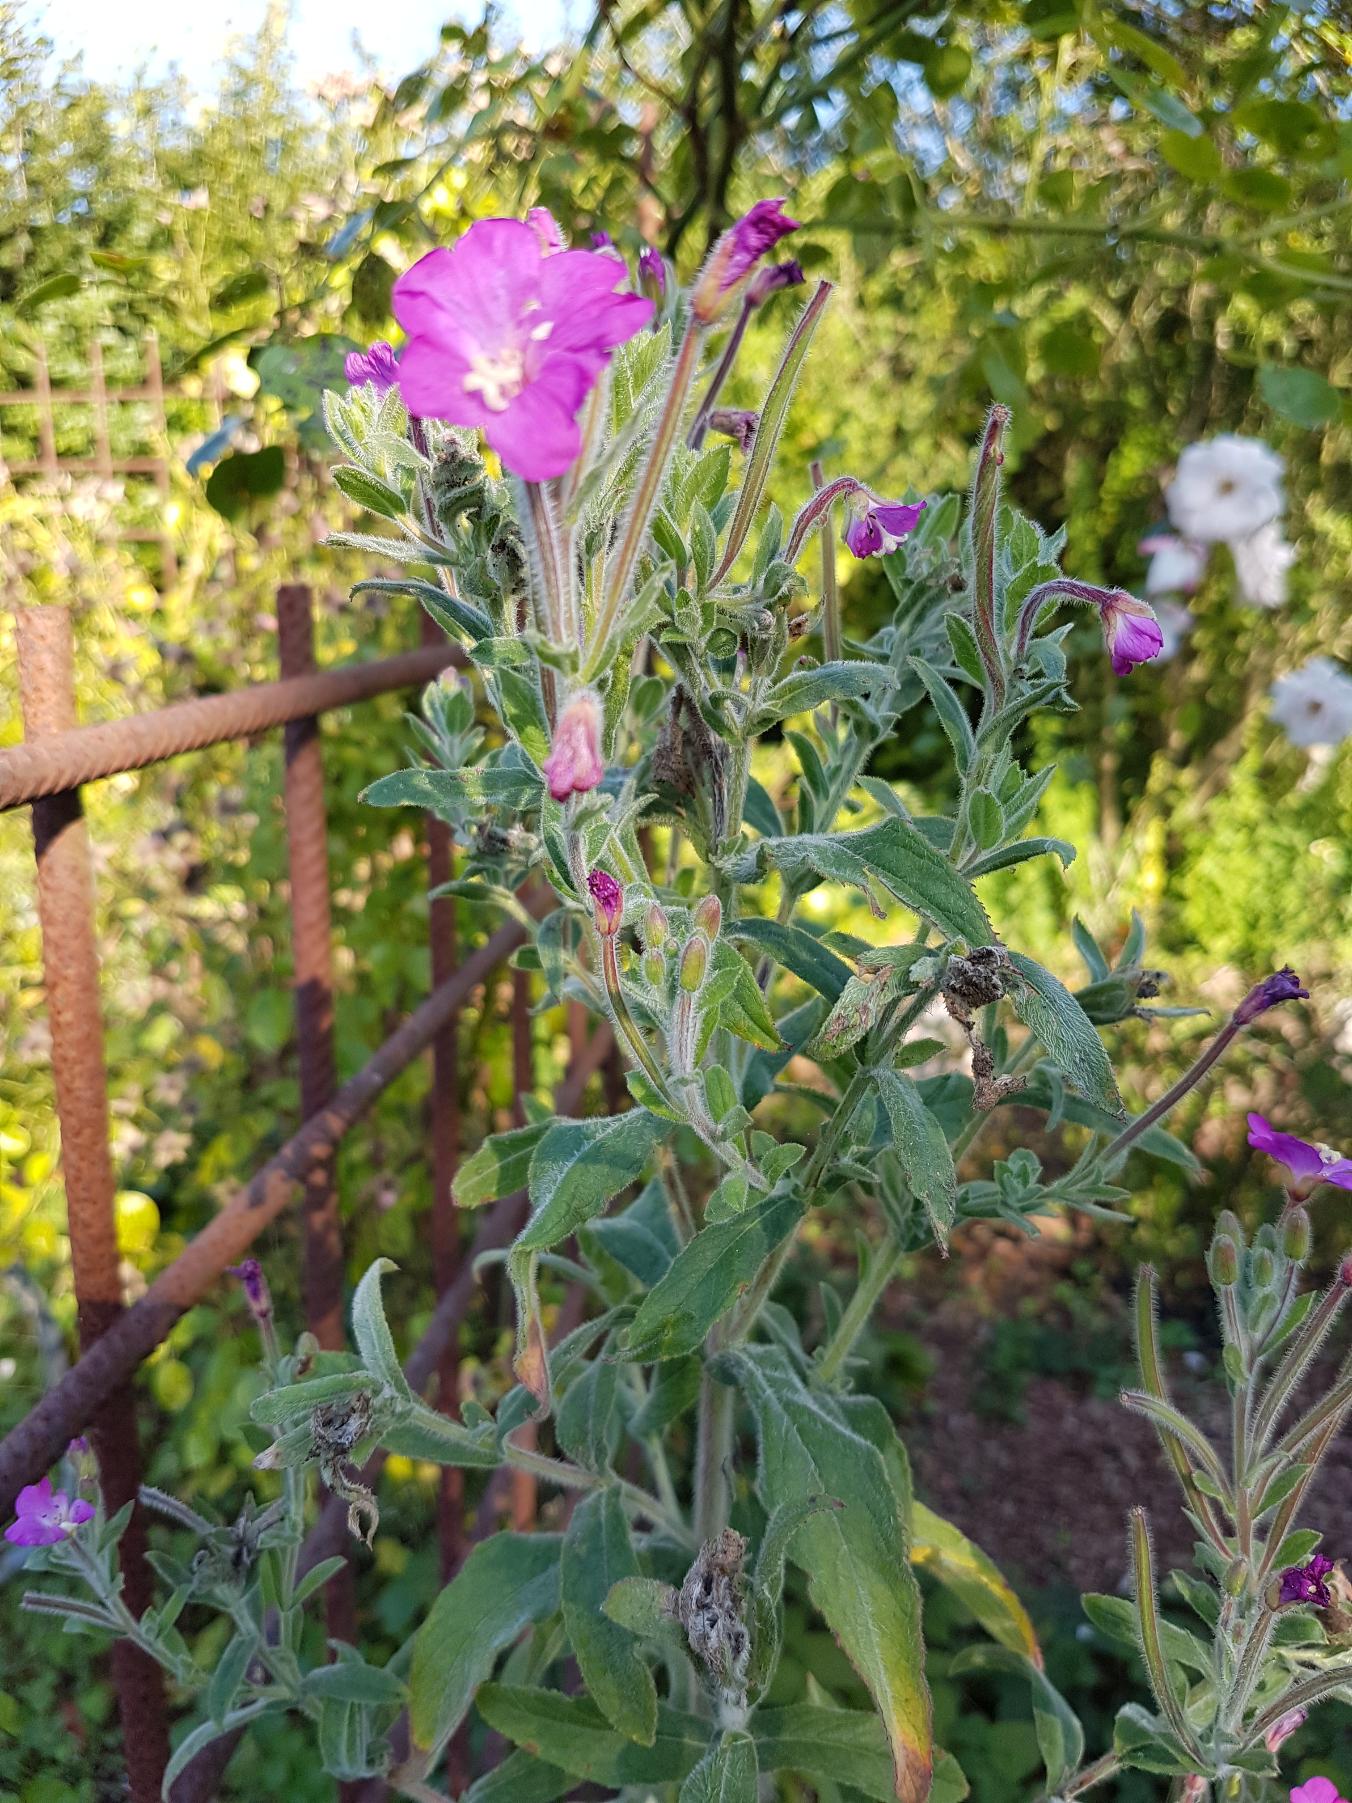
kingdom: Plantae
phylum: Tracheophyta
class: Magnoliopsida
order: Myrtales
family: Onagraceae
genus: Epilobium
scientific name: Epilobium hirsutum
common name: Lådden dueurt
